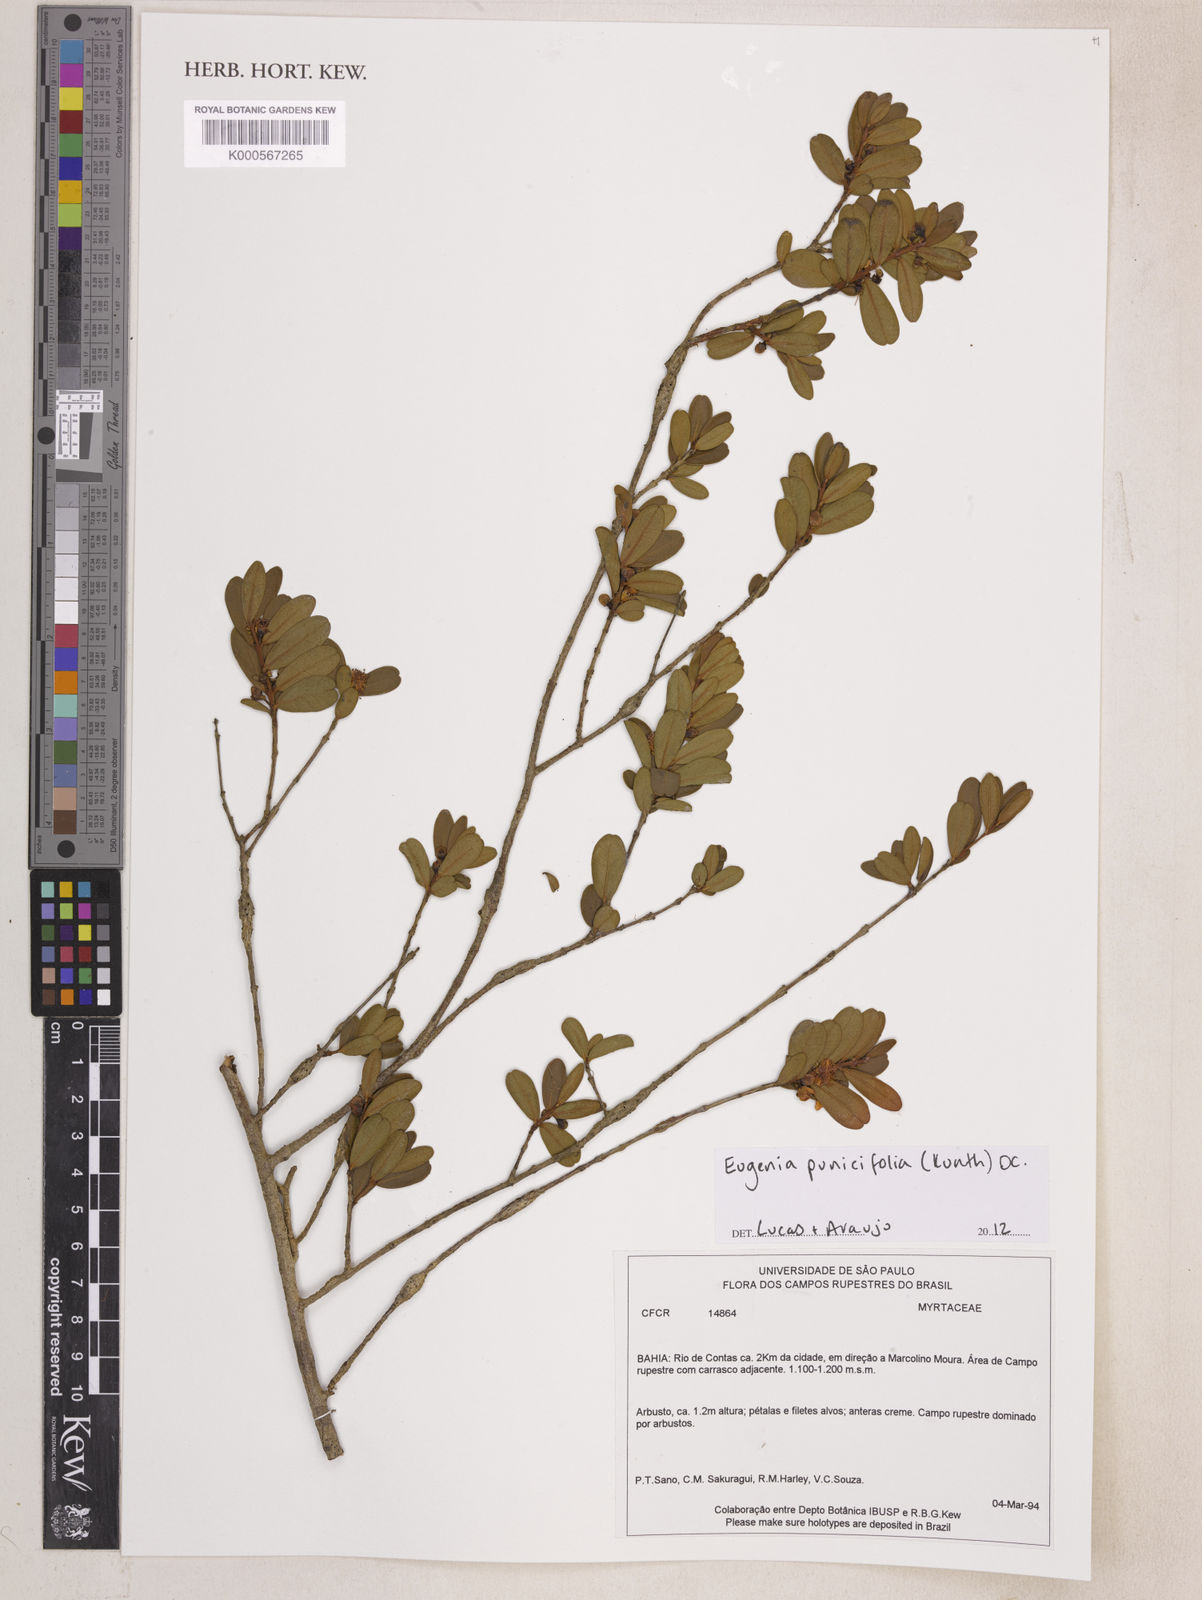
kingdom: Plantae
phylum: Tracheophyta
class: Magnoliopsida
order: Myrtales
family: Myrtaceae
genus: Eugenia
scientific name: Eugenia punicifolia
